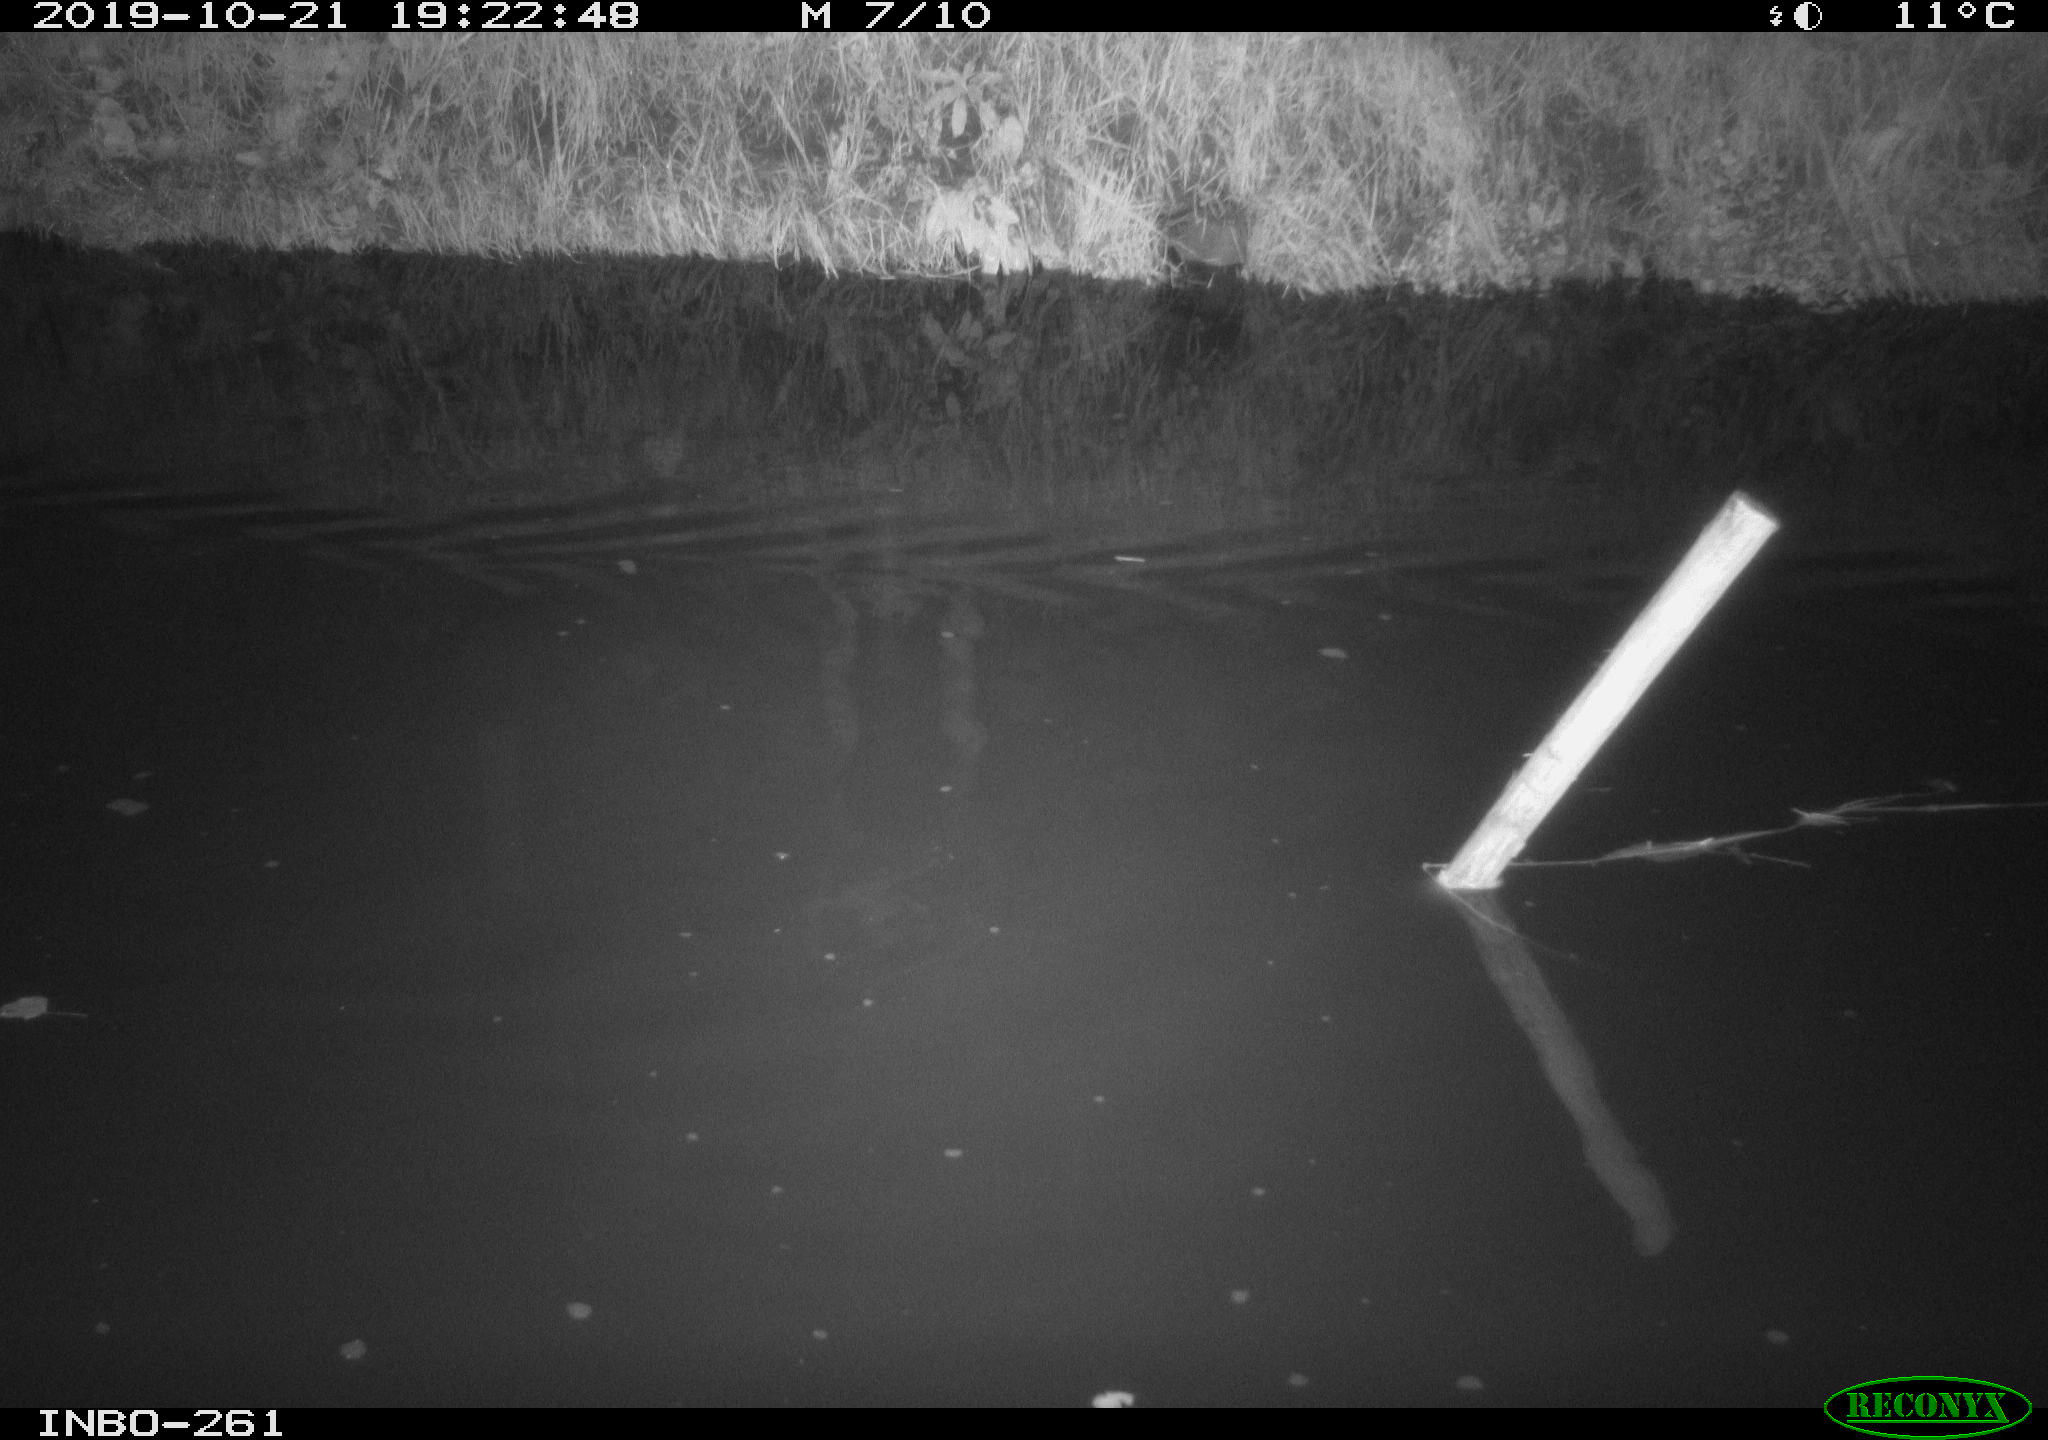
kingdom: Animalia
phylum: Chordata
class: Mammalia
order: Rodentia
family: Muridae
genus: Rattus
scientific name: Rattus norvegicus
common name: Brown rat
